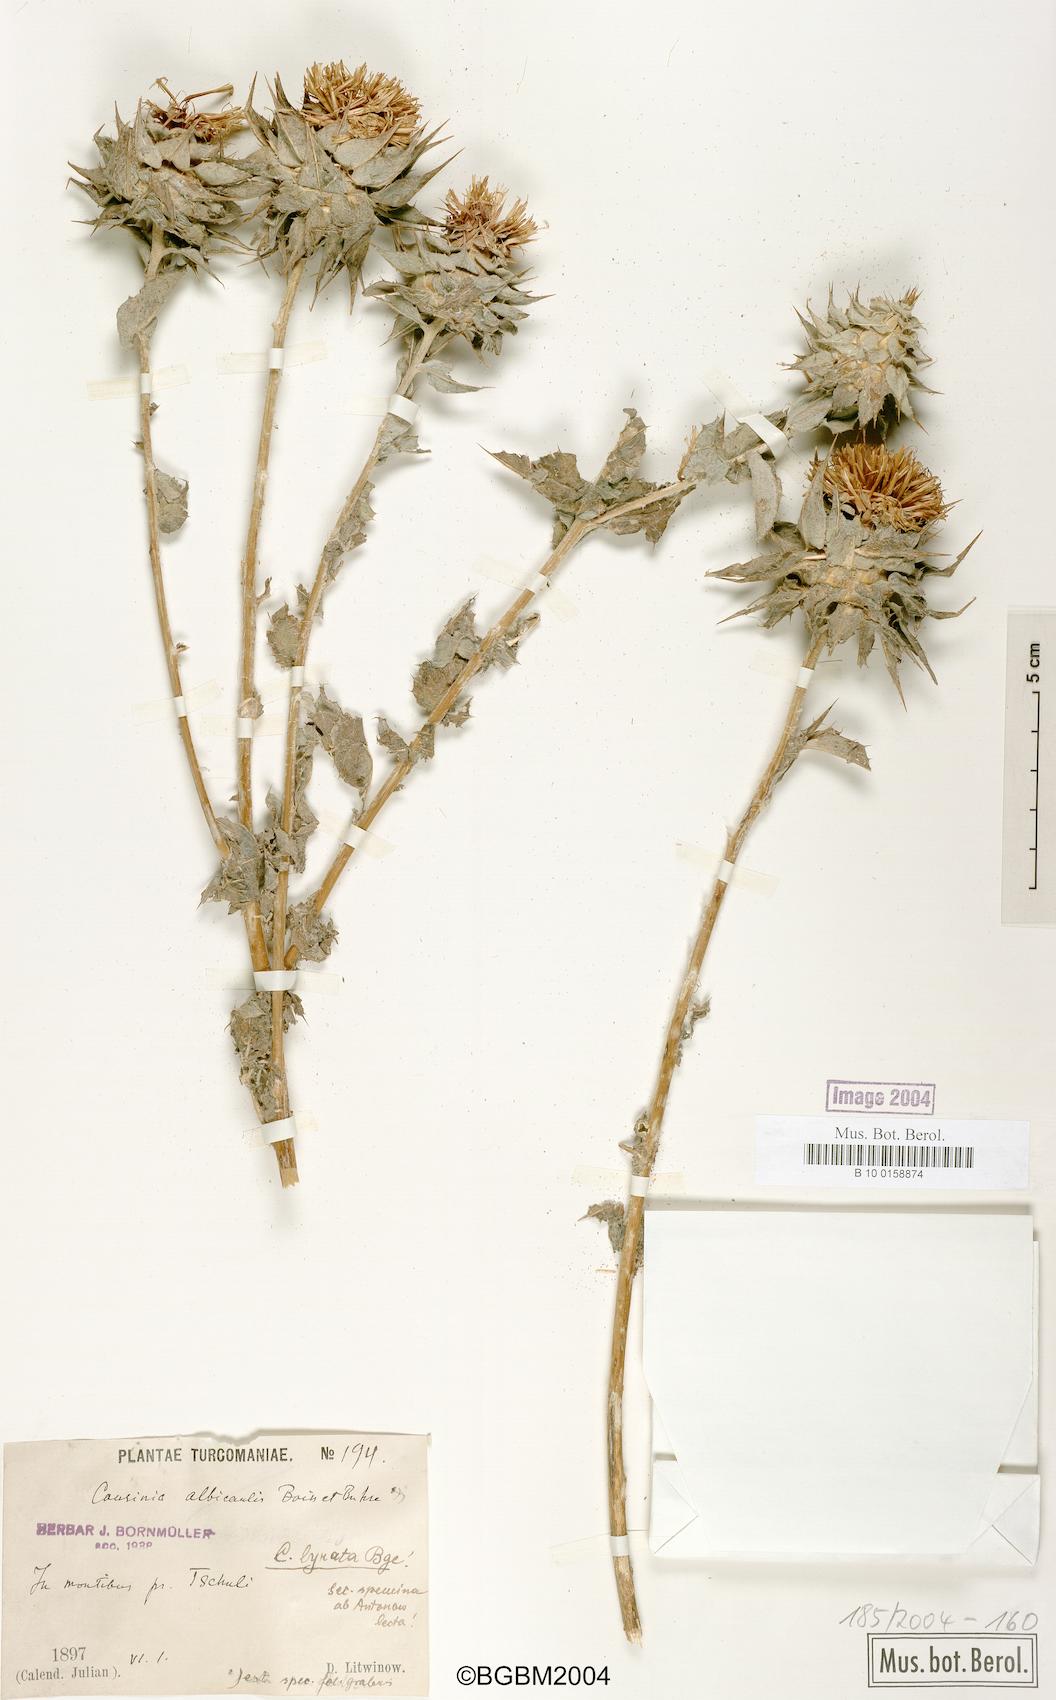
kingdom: Plantae
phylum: Tracheophyta
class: Magnoliopsida
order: Asterales
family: Asteraceae
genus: Cousinia
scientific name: Cousinia onopordioides
